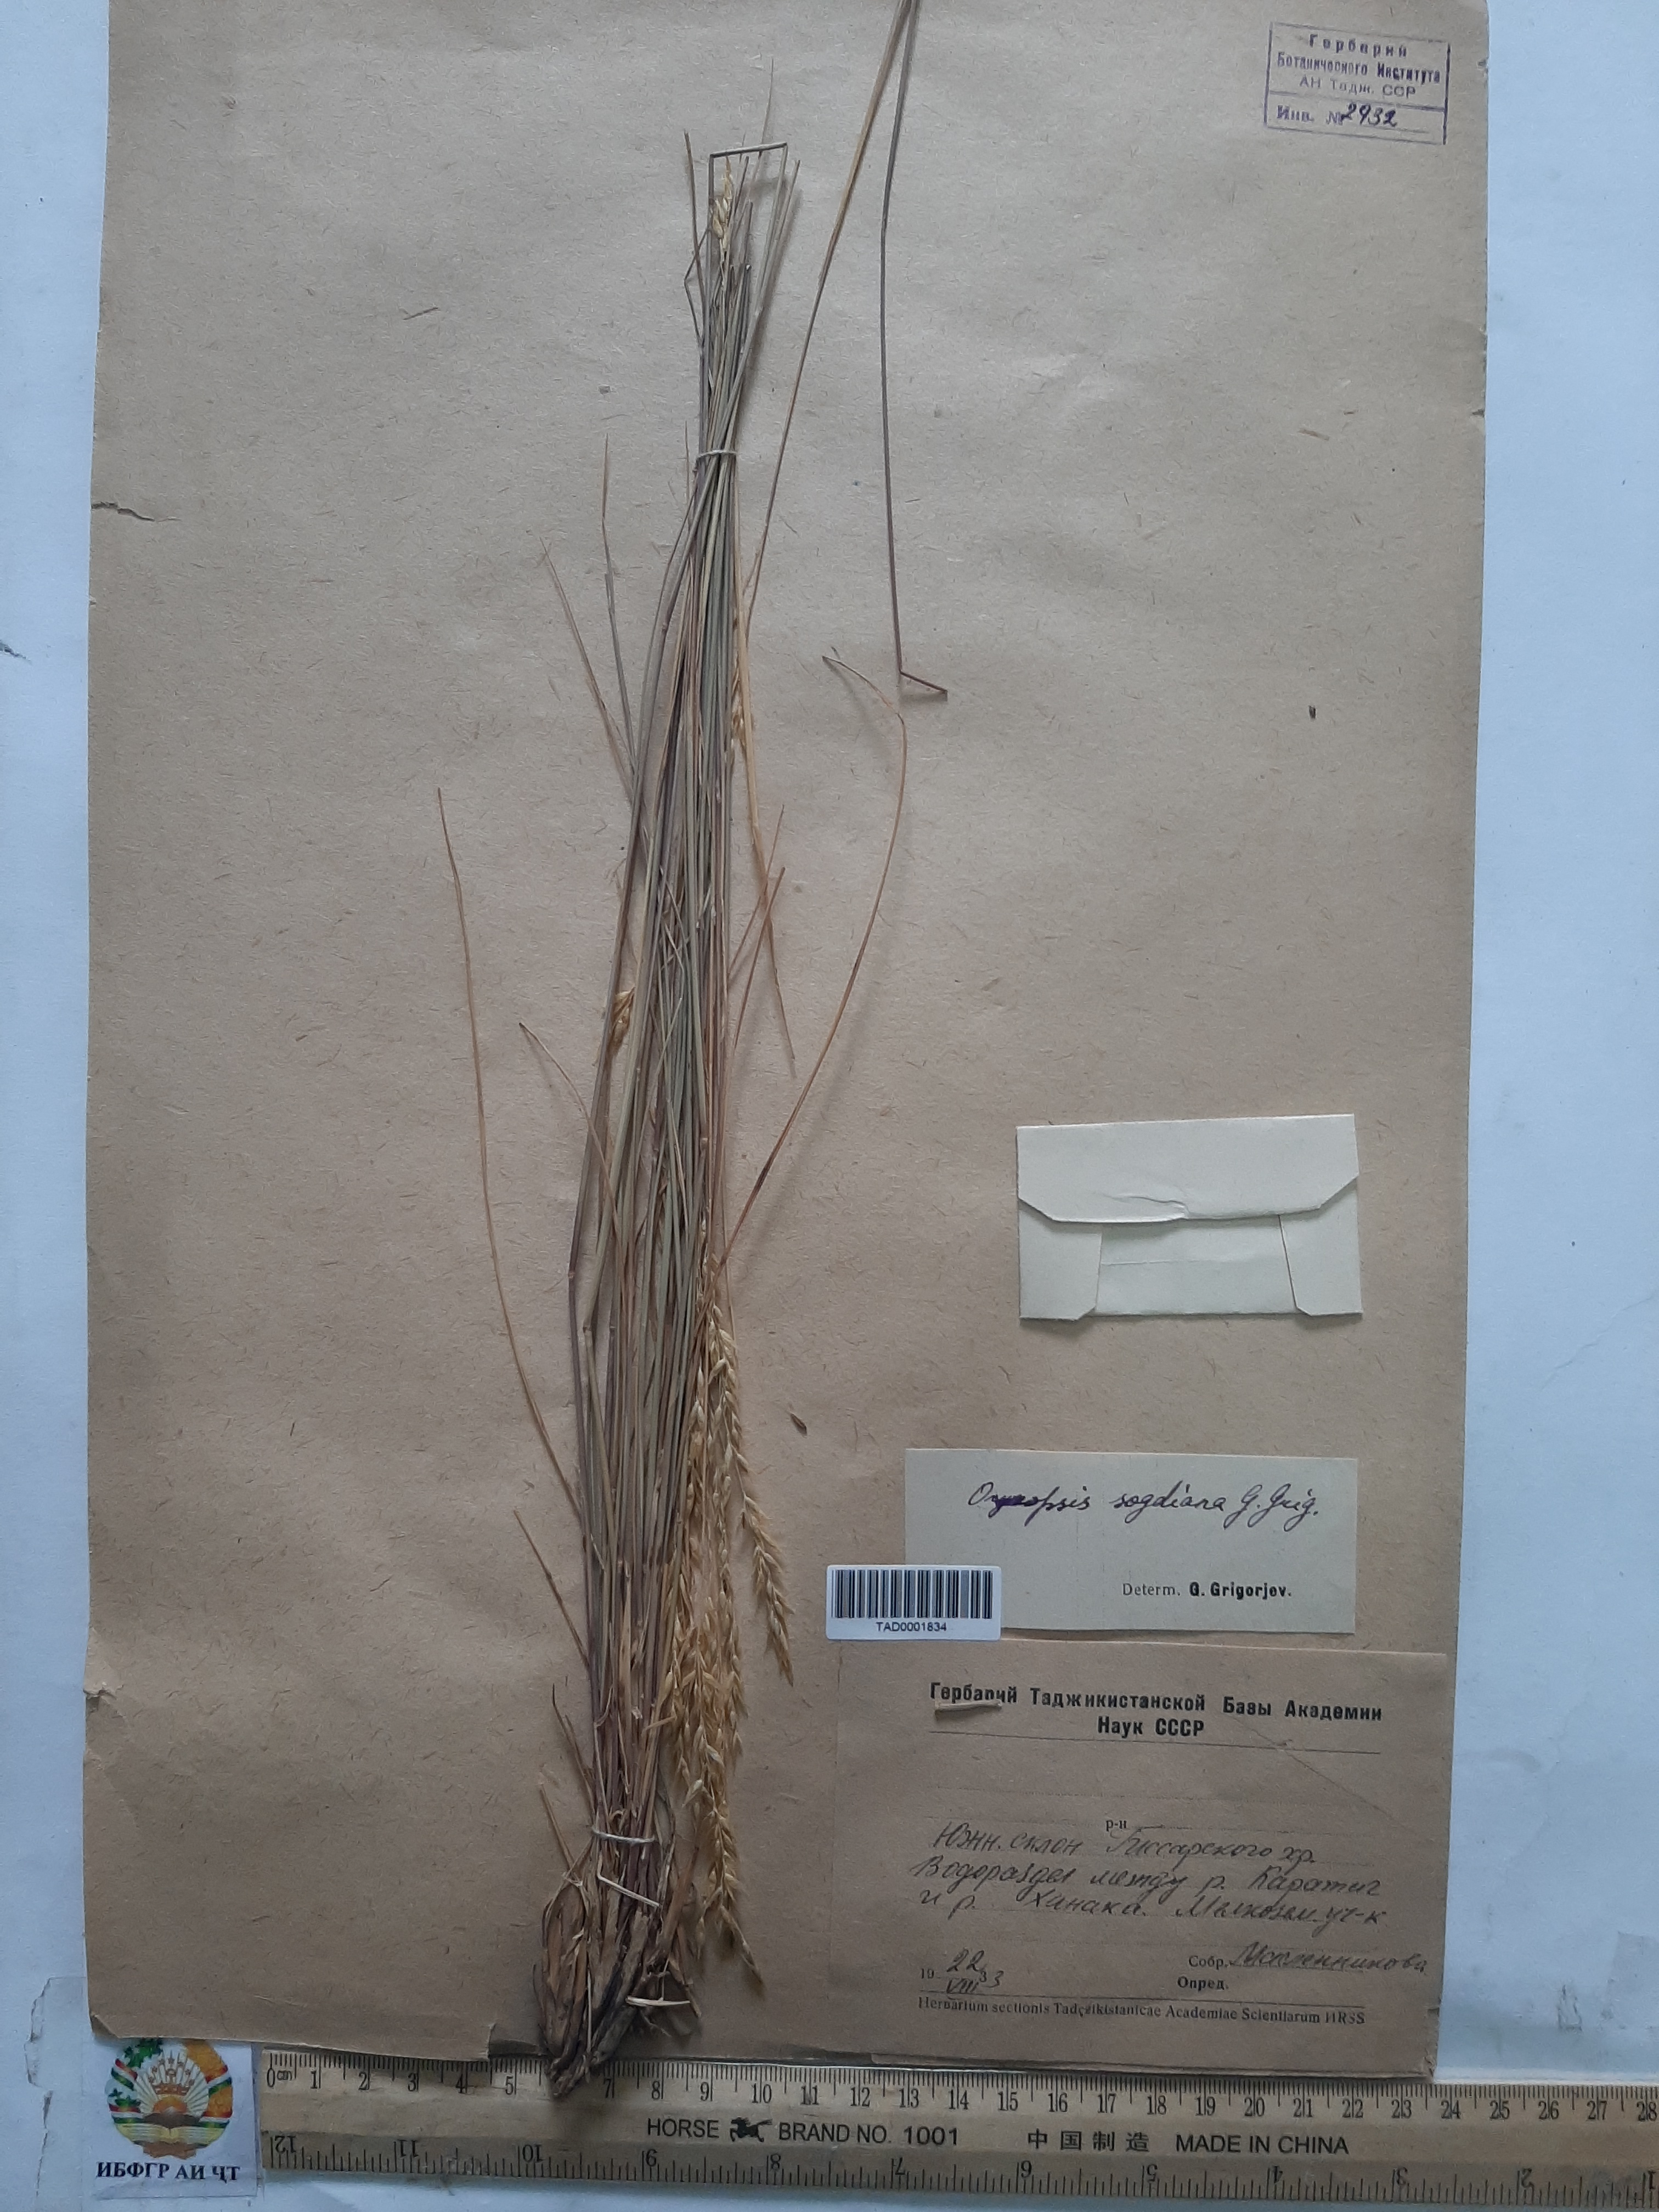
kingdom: Plantae
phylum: Tracheophyta
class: Liliopsida
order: Poales
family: Poaceae
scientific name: Poaceae
